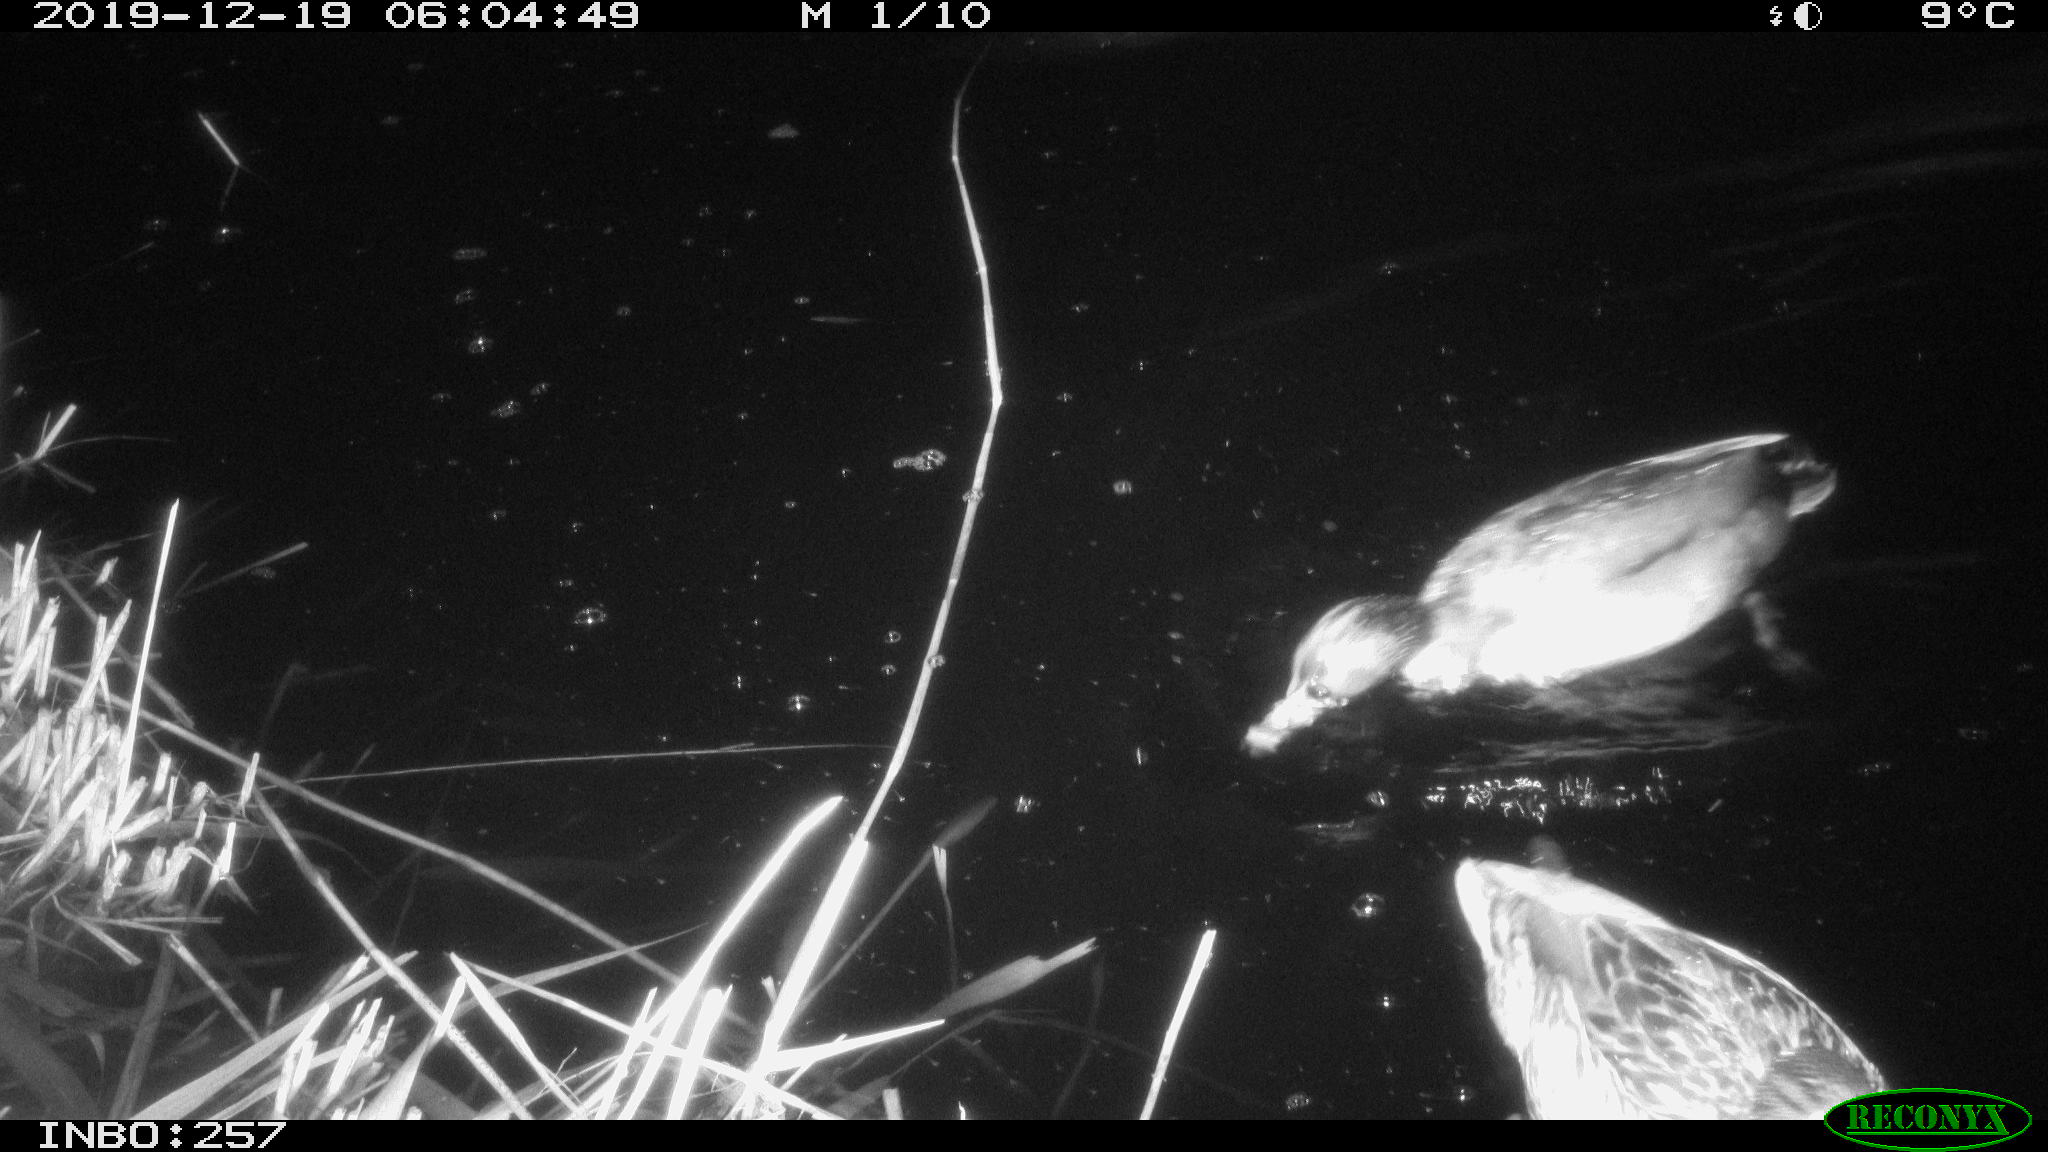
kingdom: Animalia
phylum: Chordata
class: Aves
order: Anseriformes
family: Anatidae
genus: Anas
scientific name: Anas platyrhynchos
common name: Mallard
